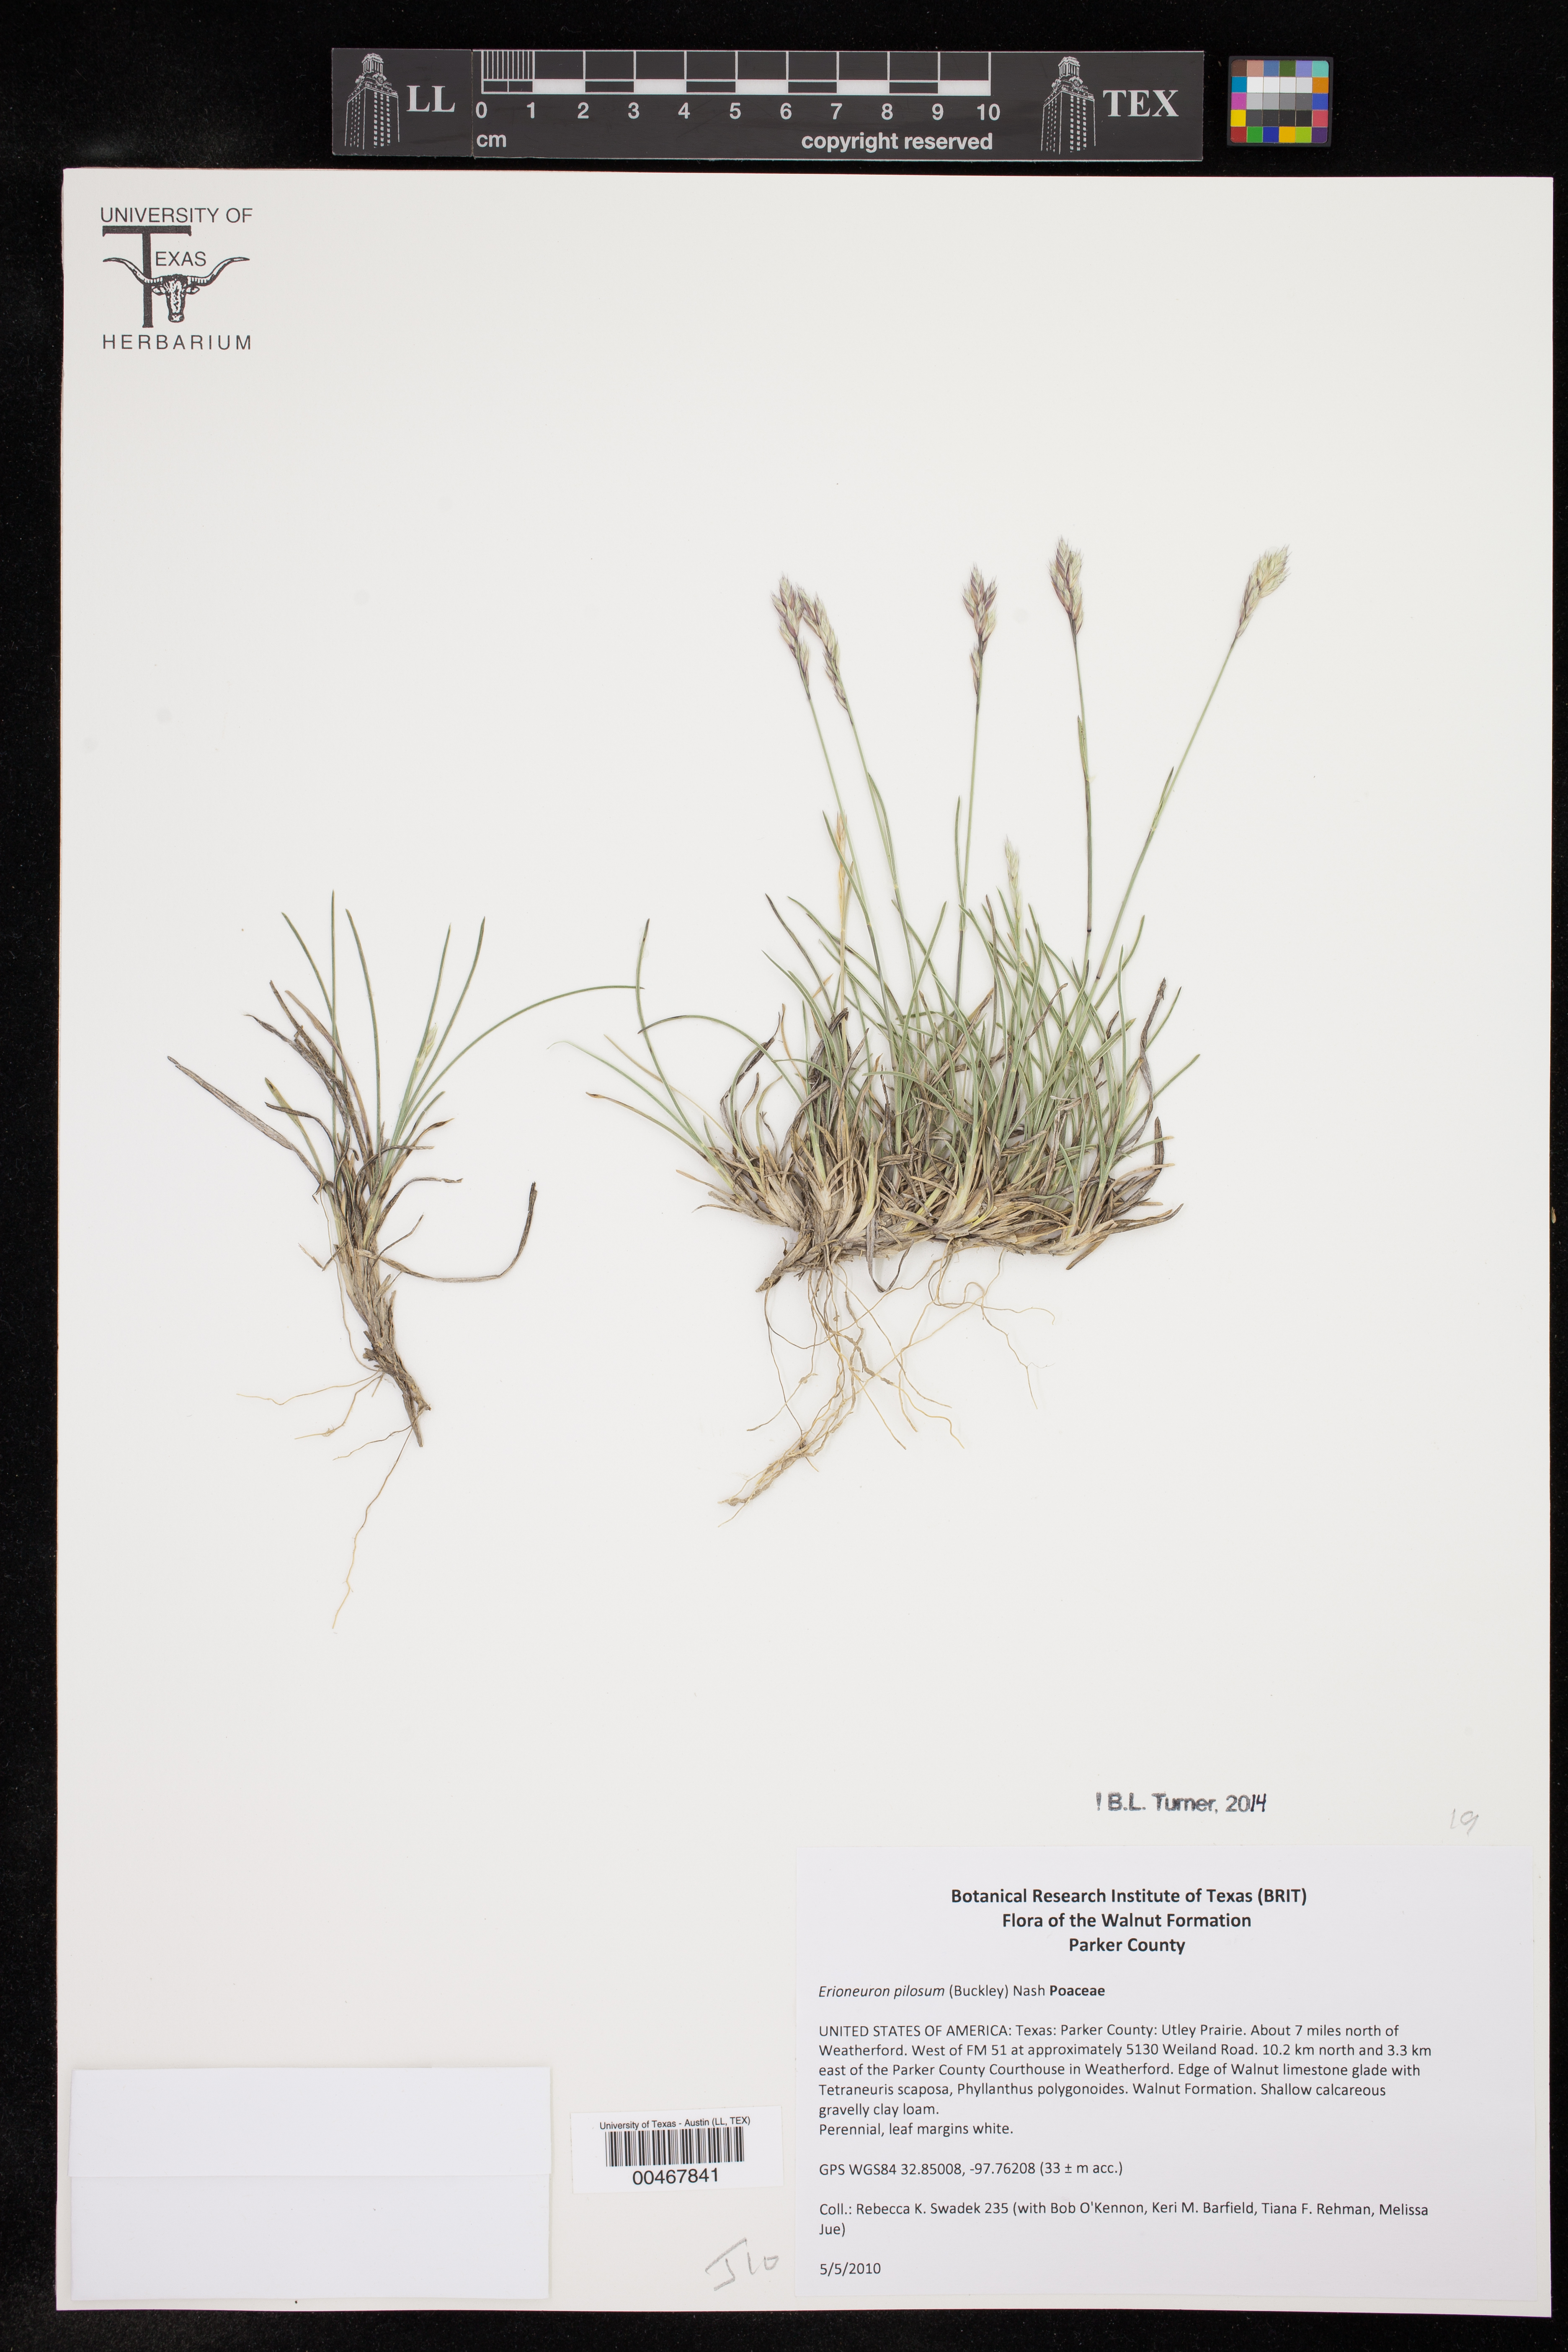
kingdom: Plantae
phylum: Tracheophyta
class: Liliopsida
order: Poales
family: Poaceae
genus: Erioneuron
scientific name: Erioneuron pilosum
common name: Hairy woolly grass
